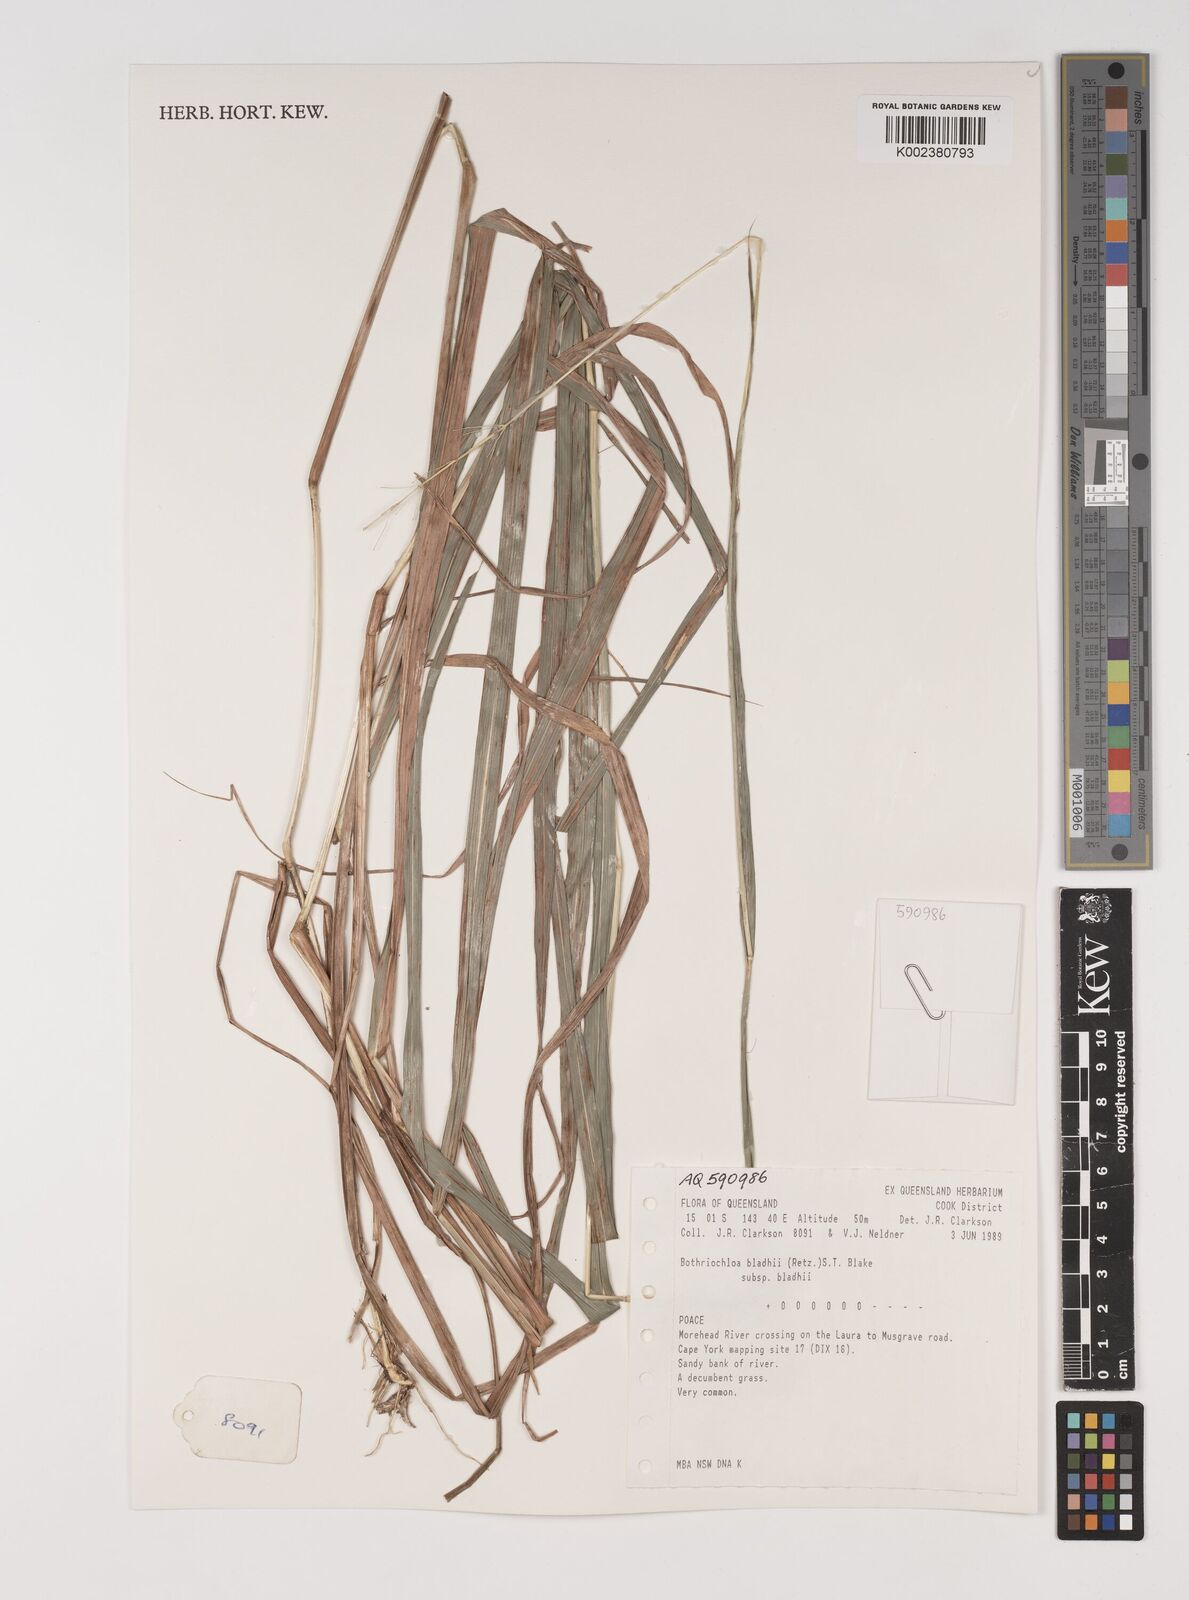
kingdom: Plantae
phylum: Tracheophyta
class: Liliopsida
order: Poales
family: Poaceae
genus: Bothriochloa
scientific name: Bothriochloa bladhii
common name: Caucasian bluestem
